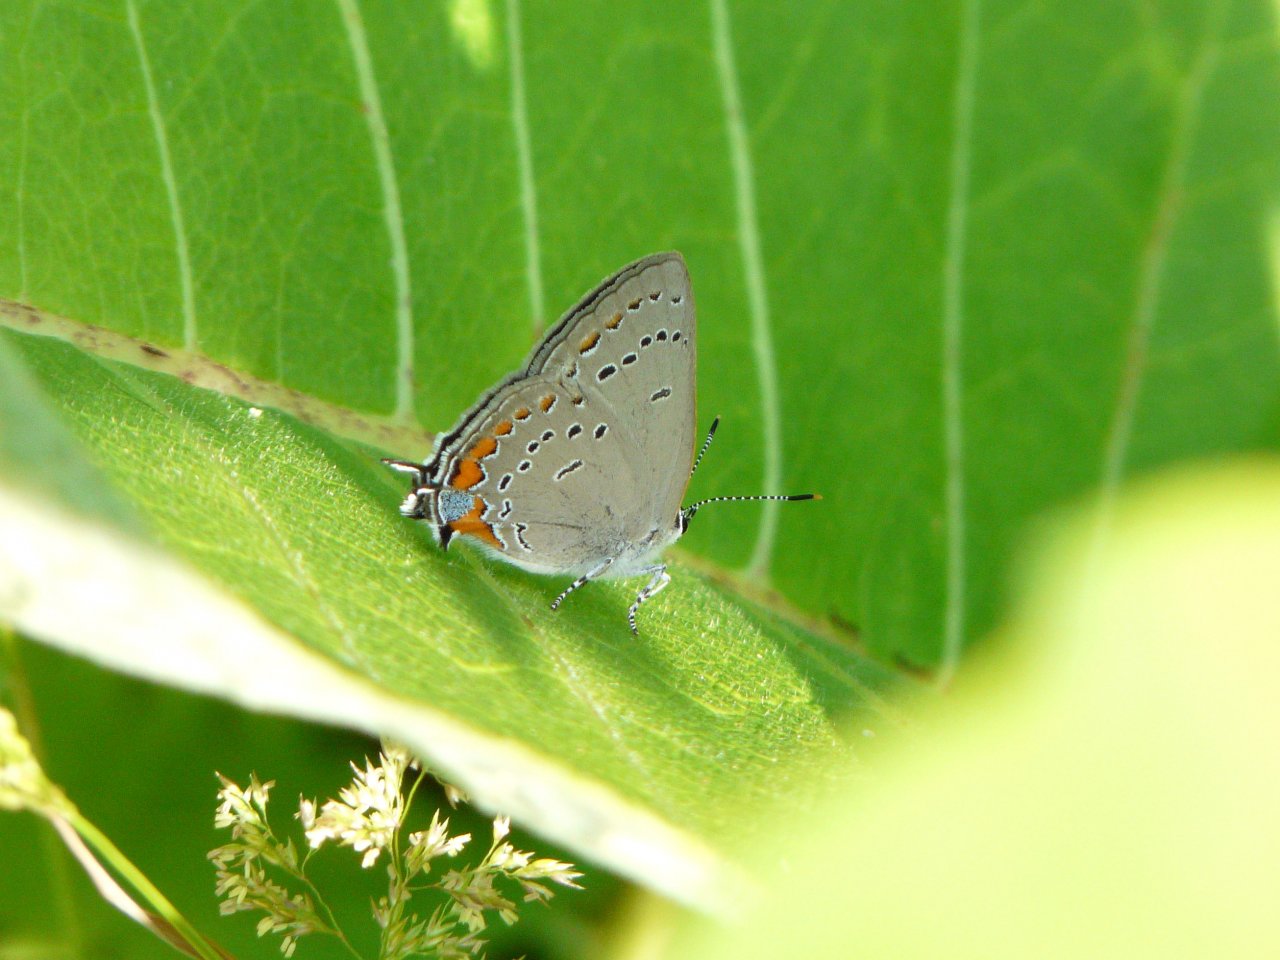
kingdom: Animalia
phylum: Arthropoda
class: Insecta
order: Lepidoptera
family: Lycaenidae
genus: Strymon
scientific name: Strymon acadica
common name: Acadian Hairstreak
